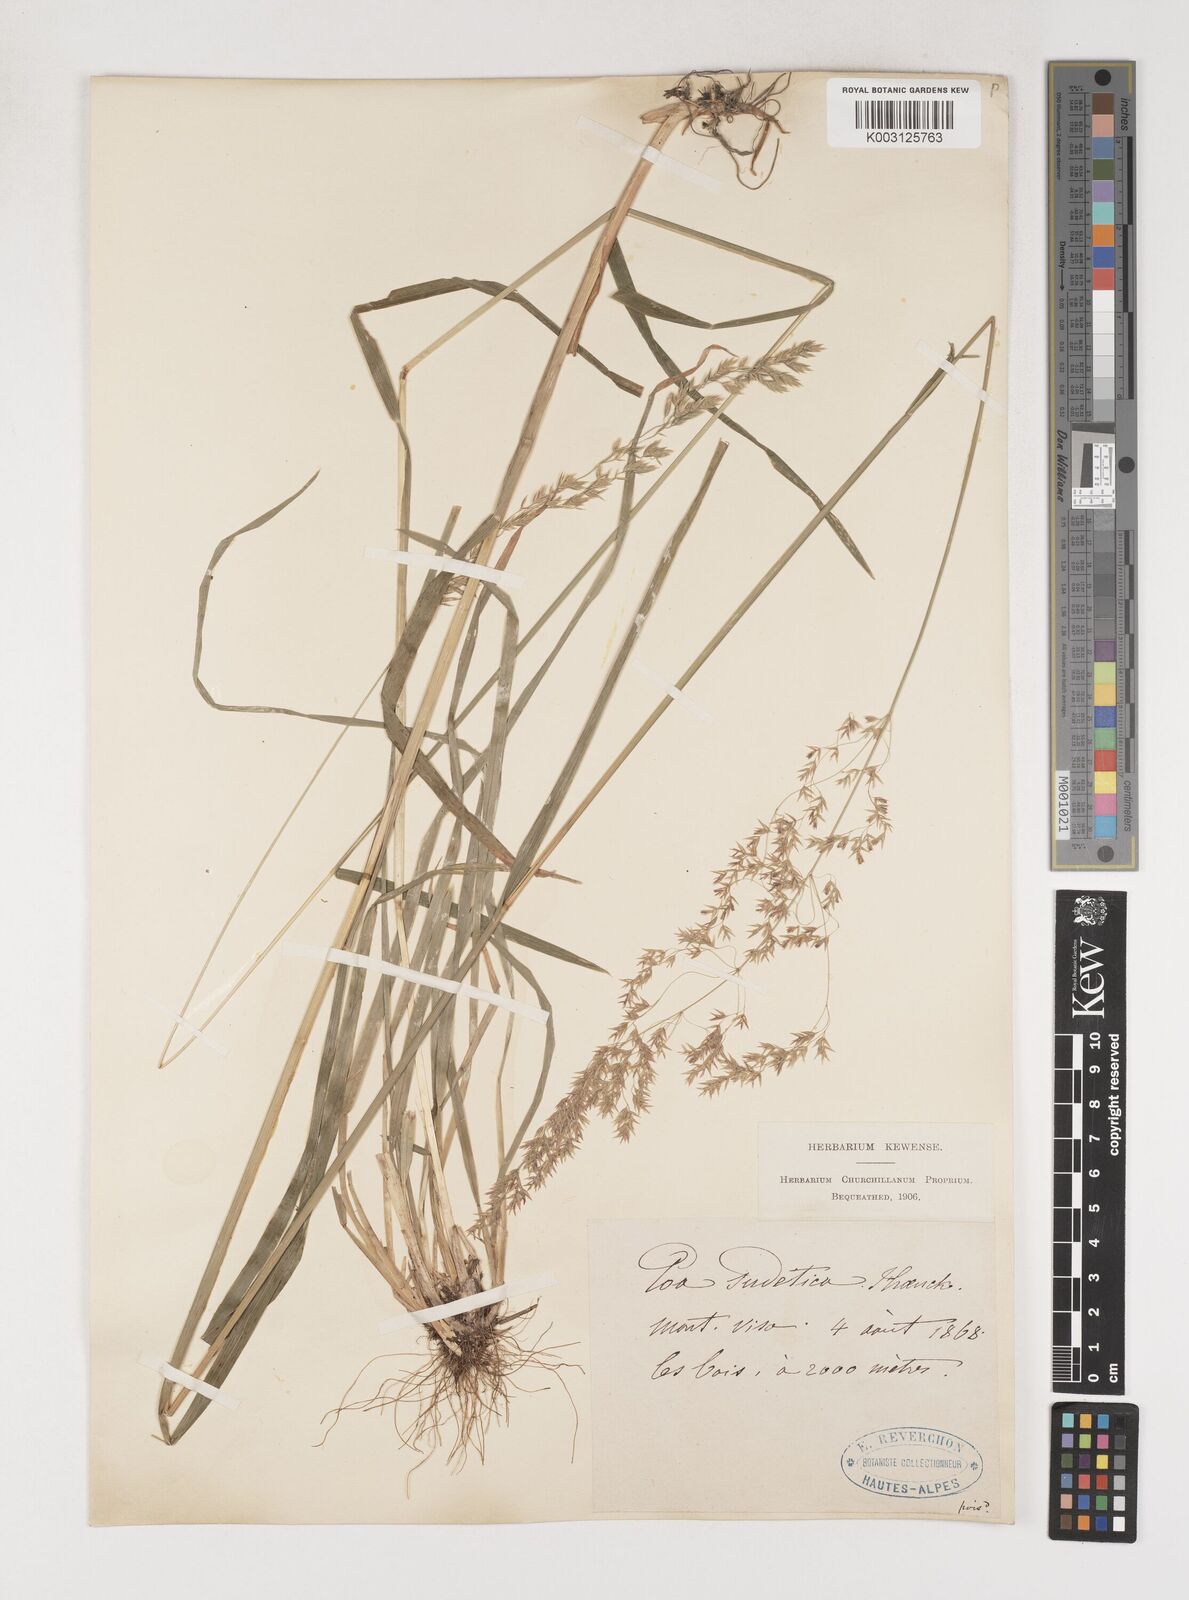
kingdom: Plantae
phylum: Tracheophyta
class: Liliopsida
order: Poales
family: Poaceae
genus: Poa
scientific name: Poa chaixii
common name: Broad-leaved meadow-grass
